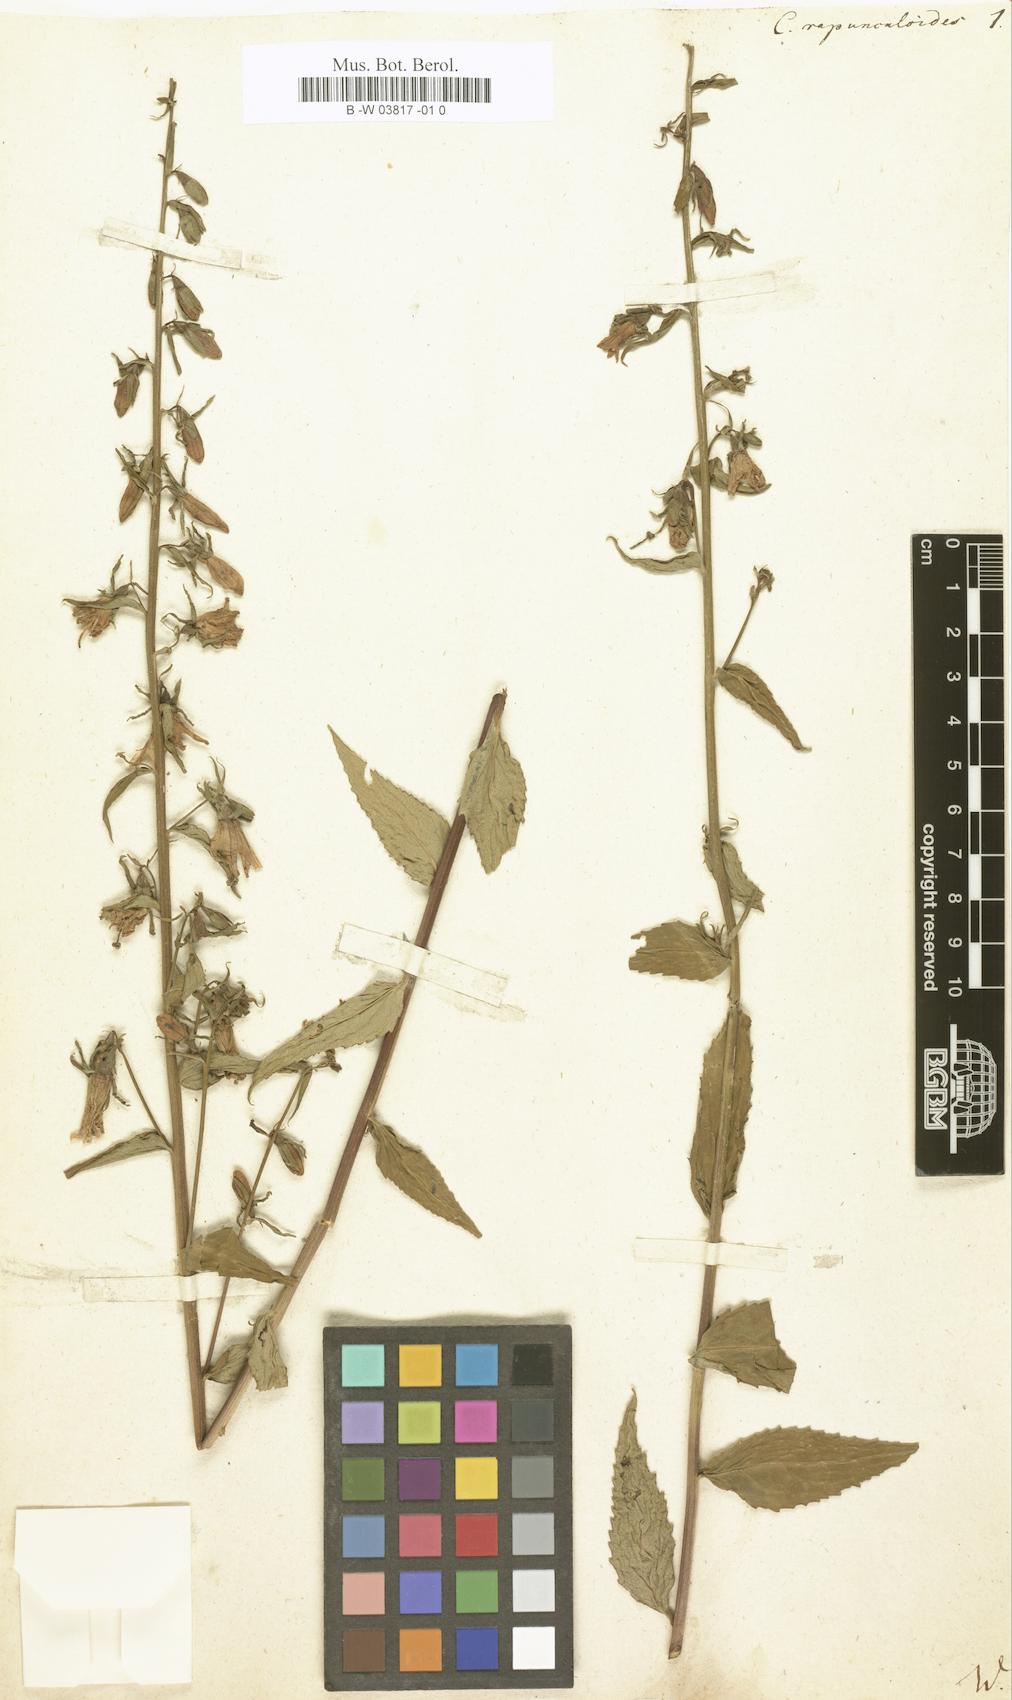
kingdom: Plantae
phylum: Tracheophyta
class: Magnoliopsida
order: Asterales
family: Campanulaceae
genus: Campanula
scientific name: Campanula rapunculoides
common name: Creeping bellflower
